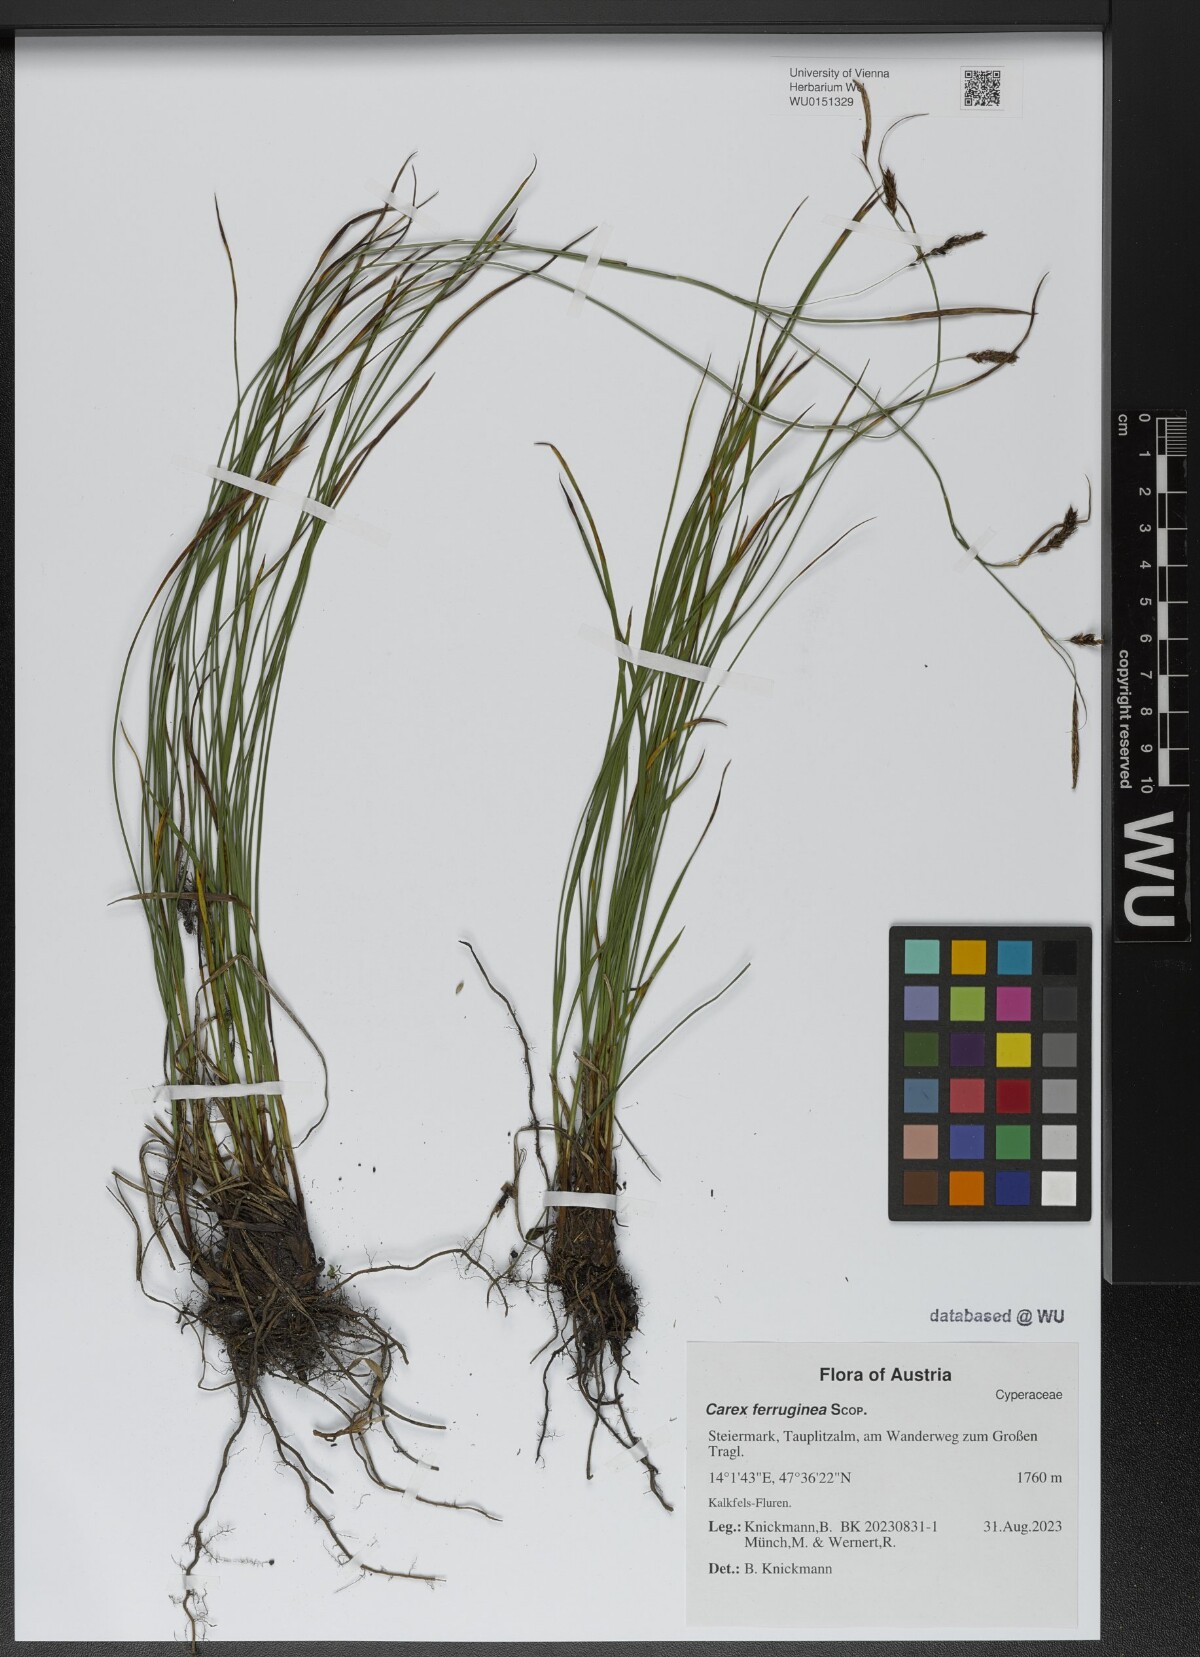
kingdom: Plantae
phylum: Tracheophyta
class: Liliopsida
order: Poales
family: Cyperaceae
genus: Carex
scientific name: Carex ferruginea
